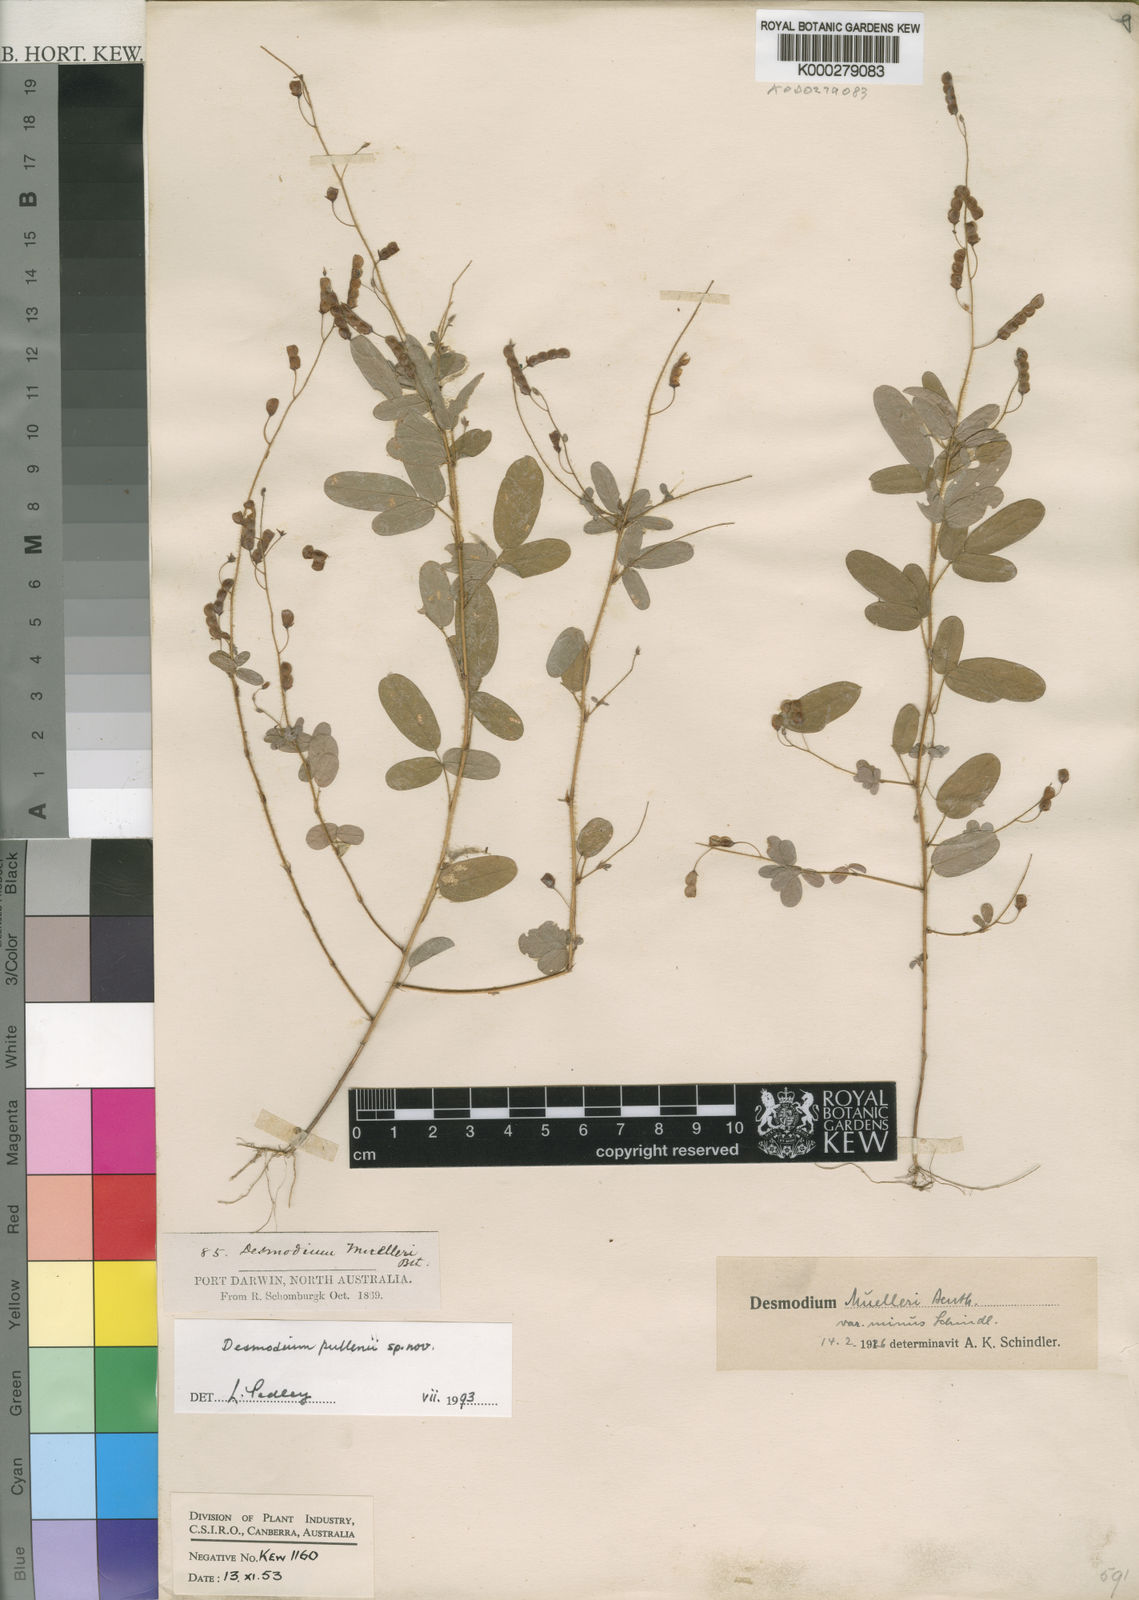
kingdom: Plantae
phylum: Tracheophyta
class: Magnoliopsida
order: Fabales
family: Fabaceae
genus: Grona
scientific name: Grona pullenii
